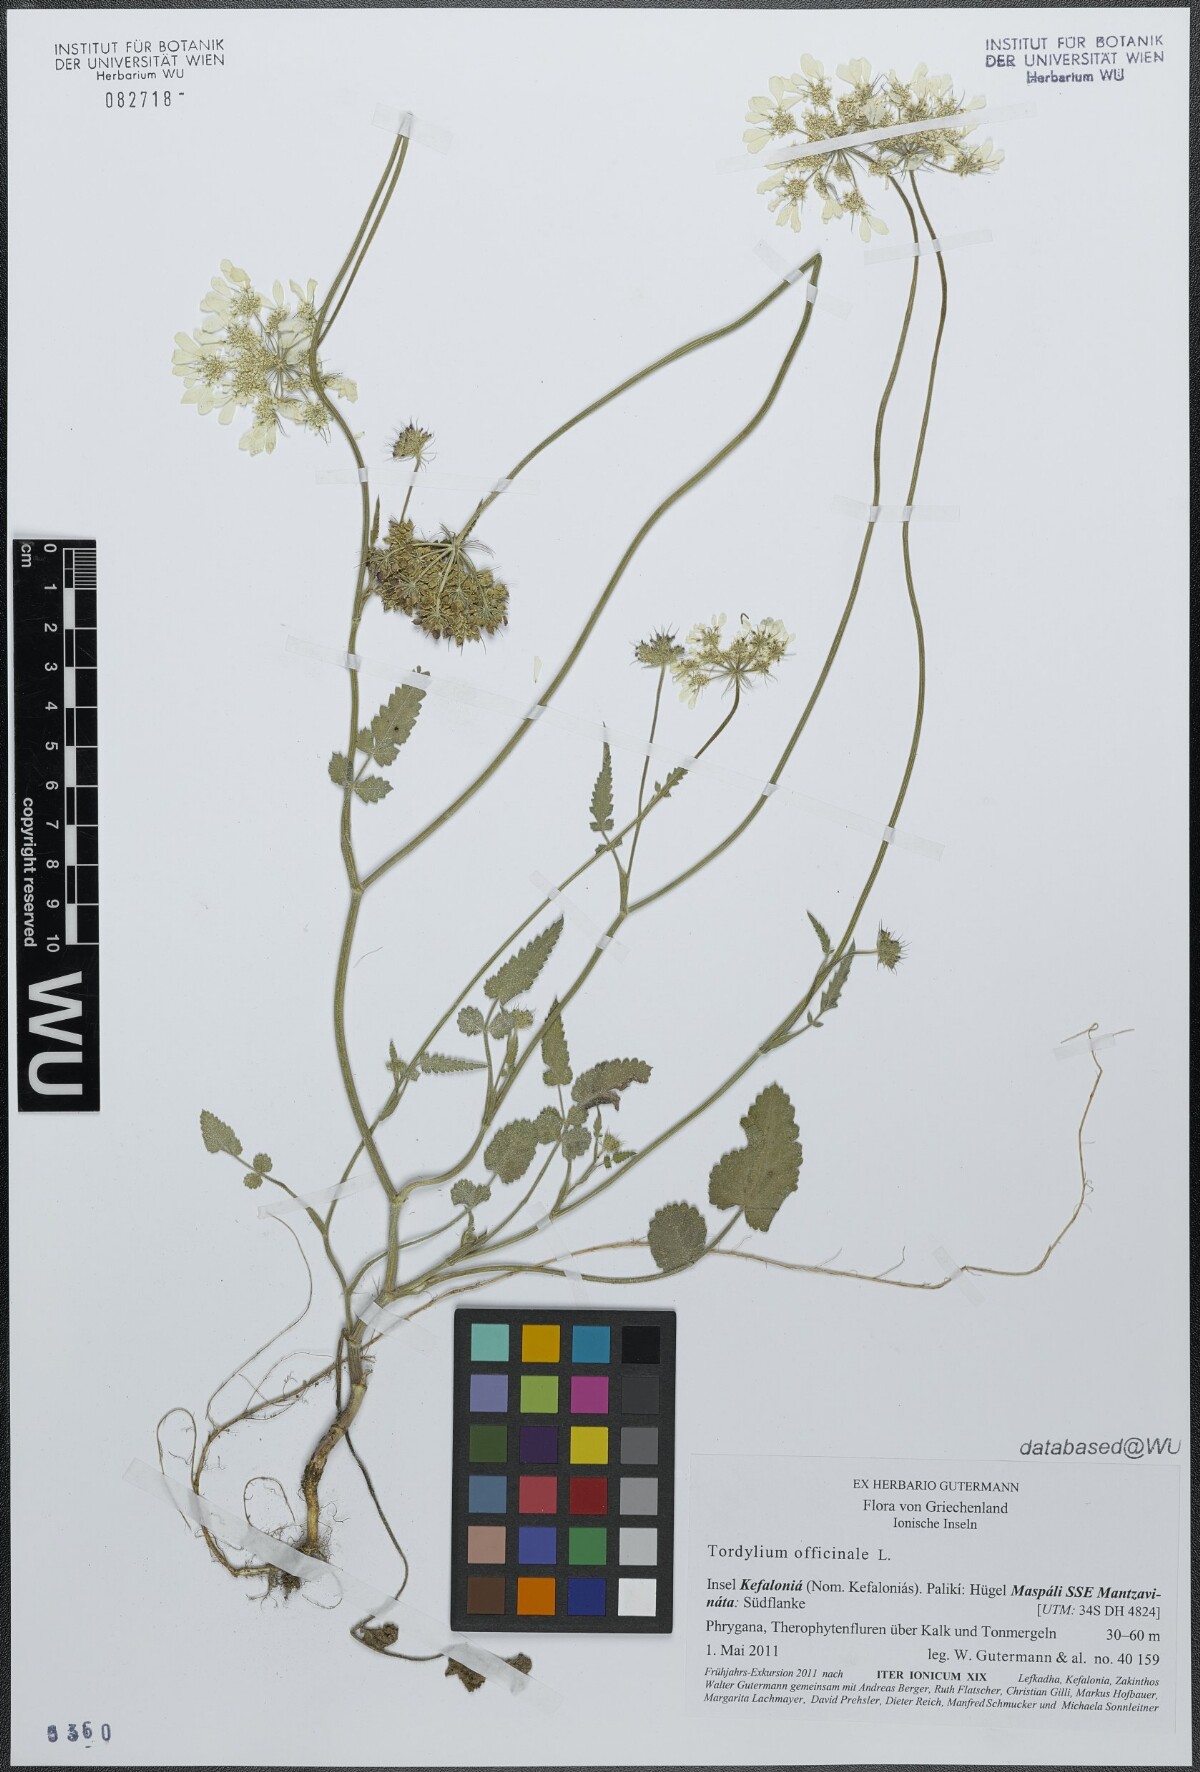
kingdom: Plantae
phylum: Tracheophyta
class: Magnoliopsida
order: Apiales
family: Apiaceae
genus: Tordylium
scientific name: Tordylium officinale
